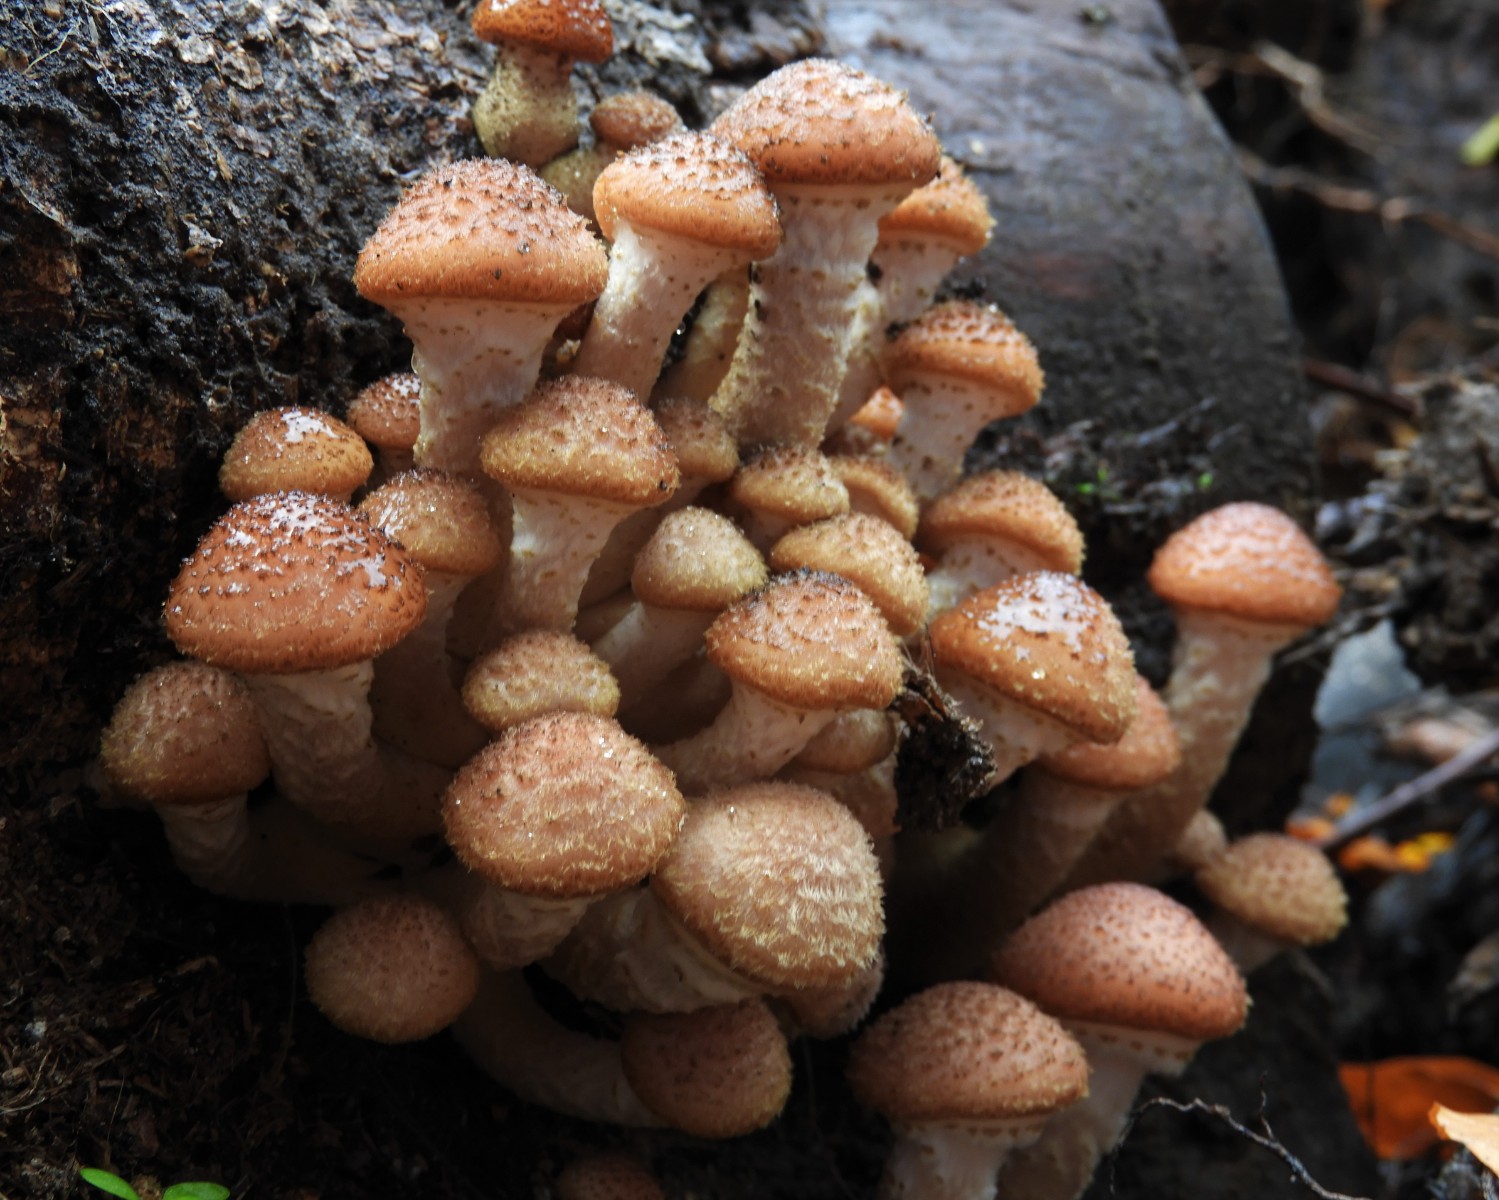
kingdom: Fungi
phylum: Basidiomycota
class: Agaricomycetes
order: Agaricales
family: Physalacriaceae
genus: Armillaria
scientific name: Armillaria ostoyae
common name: mørk honningsvamp
